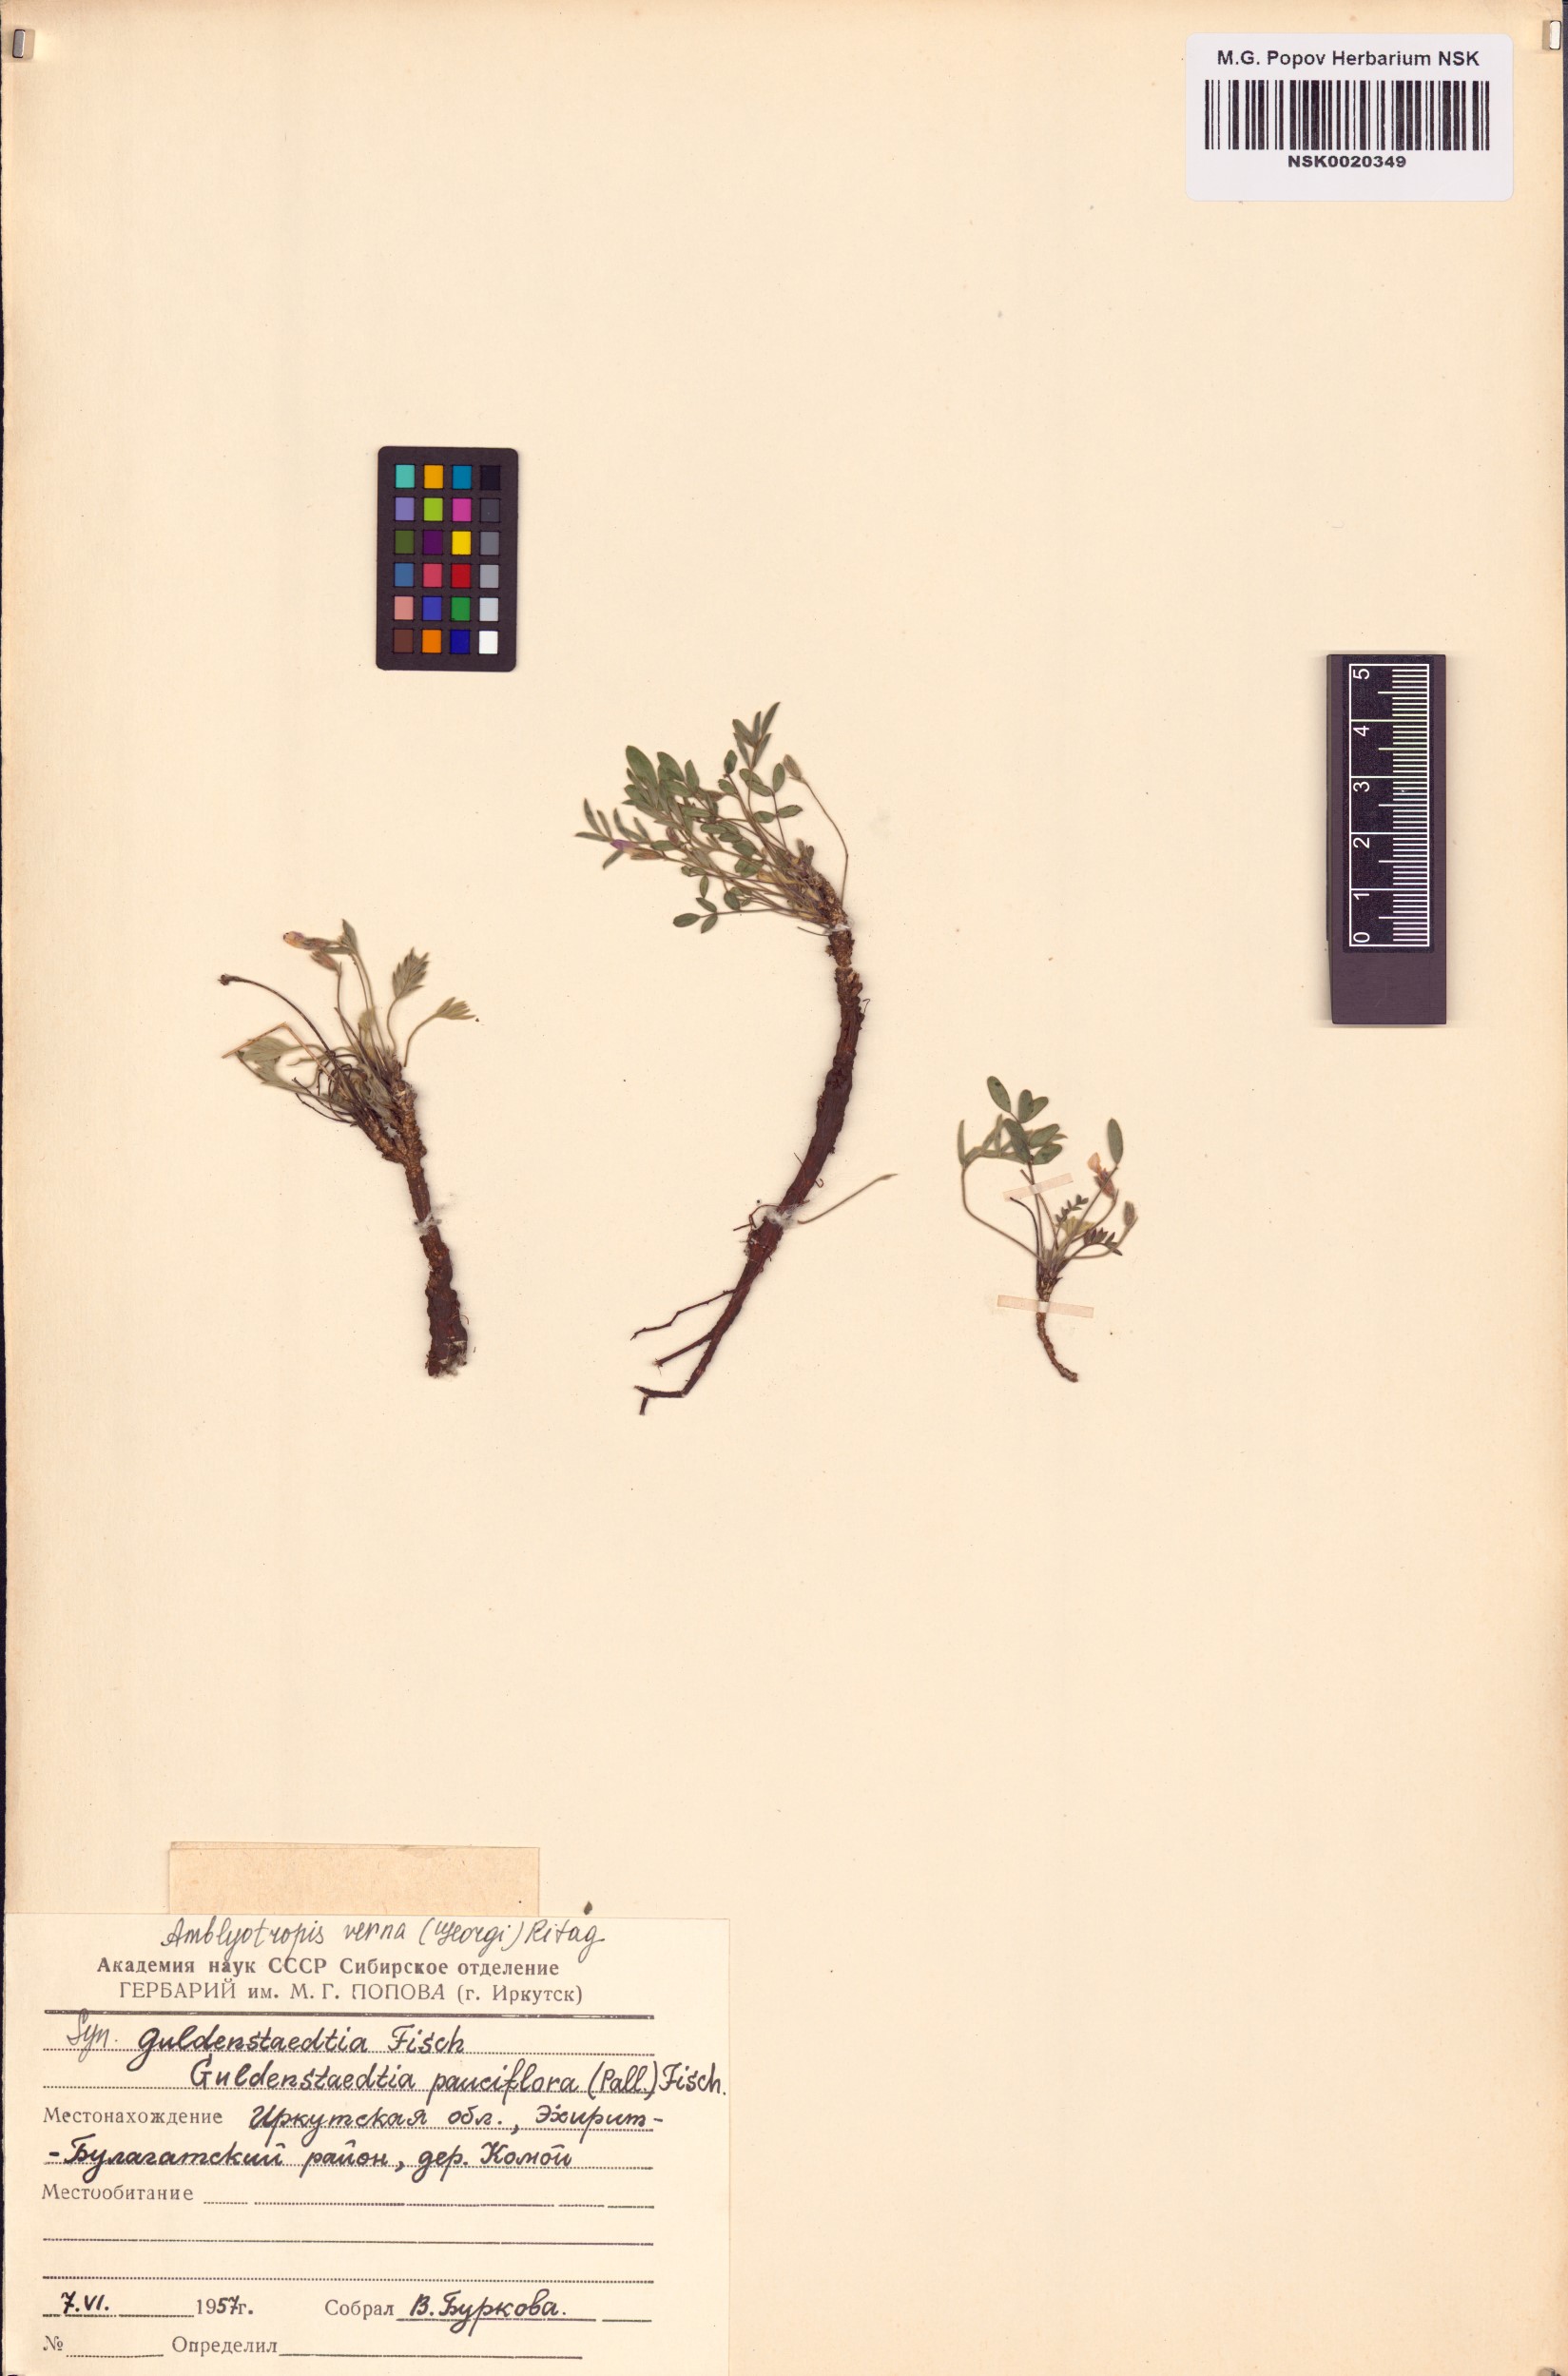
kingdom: Plantae
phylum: Tracheophyta
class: Magnoliopsida
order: Fabales
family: Fabaceae
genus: Gueldenstaedtia
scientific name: Gueldenstaedtia verna
